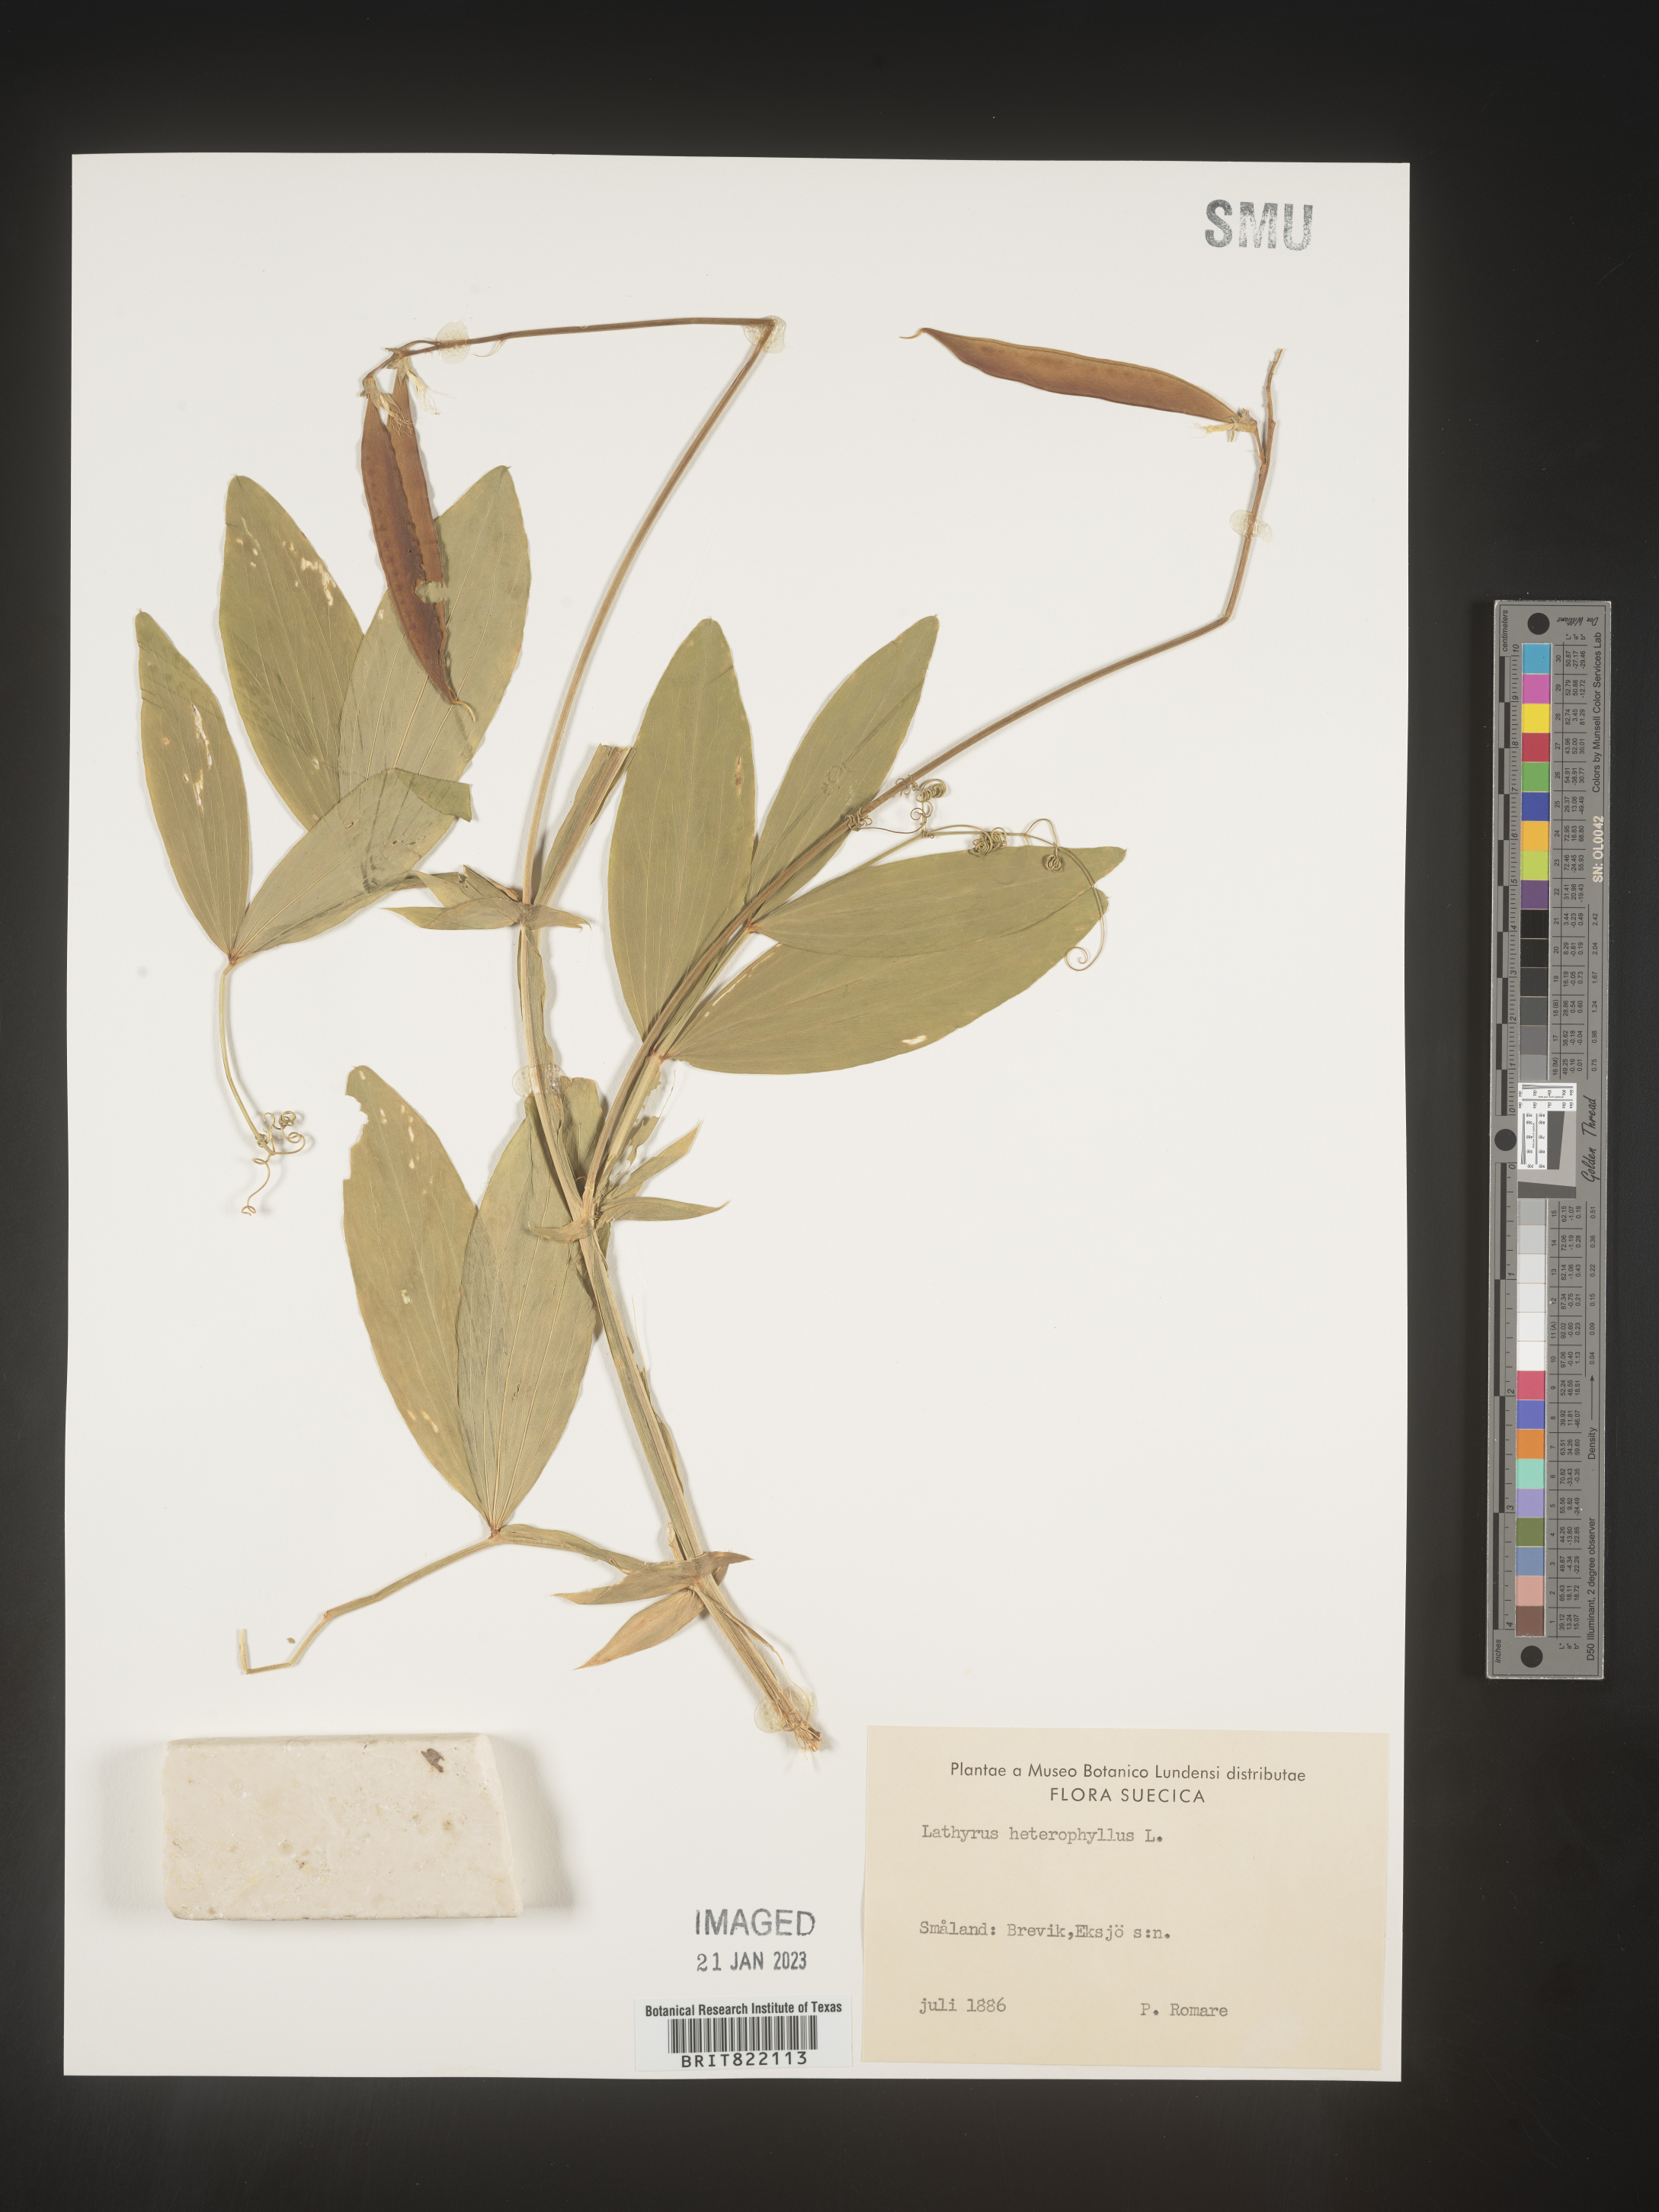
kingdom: Plantae
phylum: Tracheophyta
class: Magnoliopsida
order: Fabales
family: Fabaceae
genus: Lathyrus
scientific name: Lathyrus
